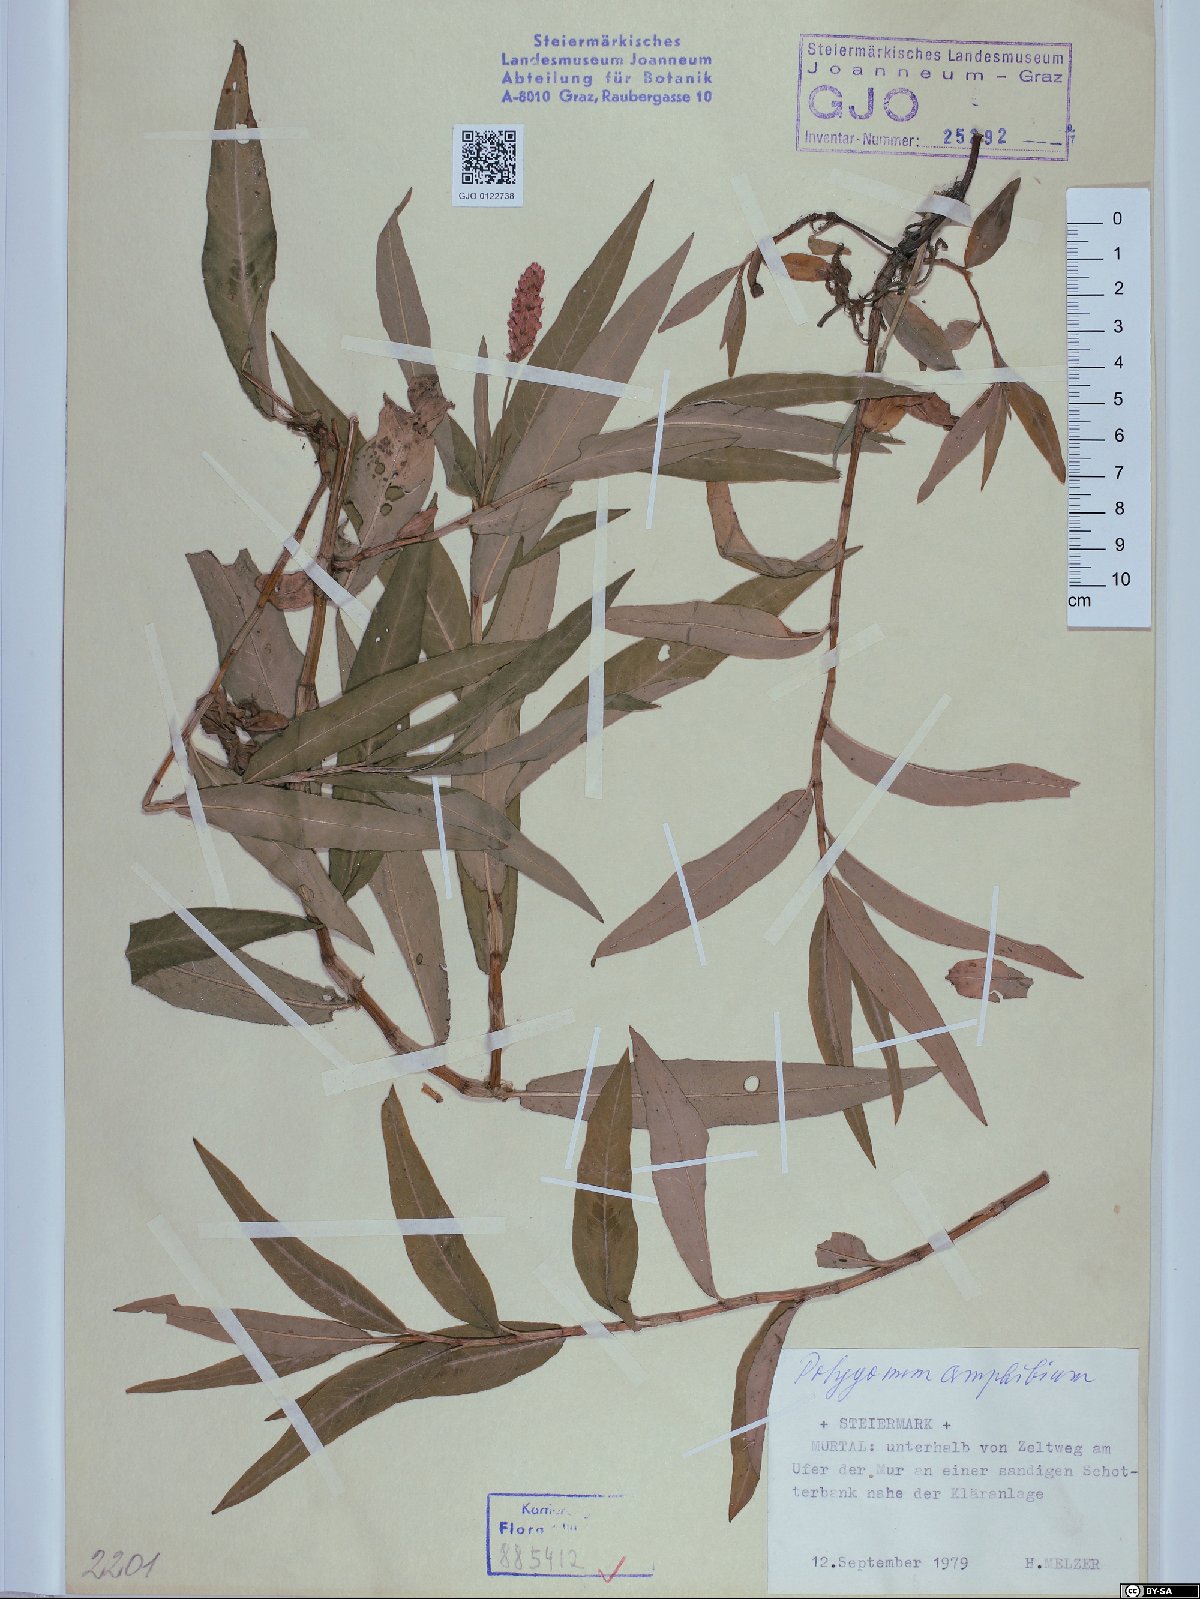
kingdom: Plantae
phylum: Tracheophyta
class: Magnoliopsida
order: Caryophyllales
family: Polygonaceae
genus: Persicaria
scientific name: Persicaria amphibia
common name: Amphibious bistort
